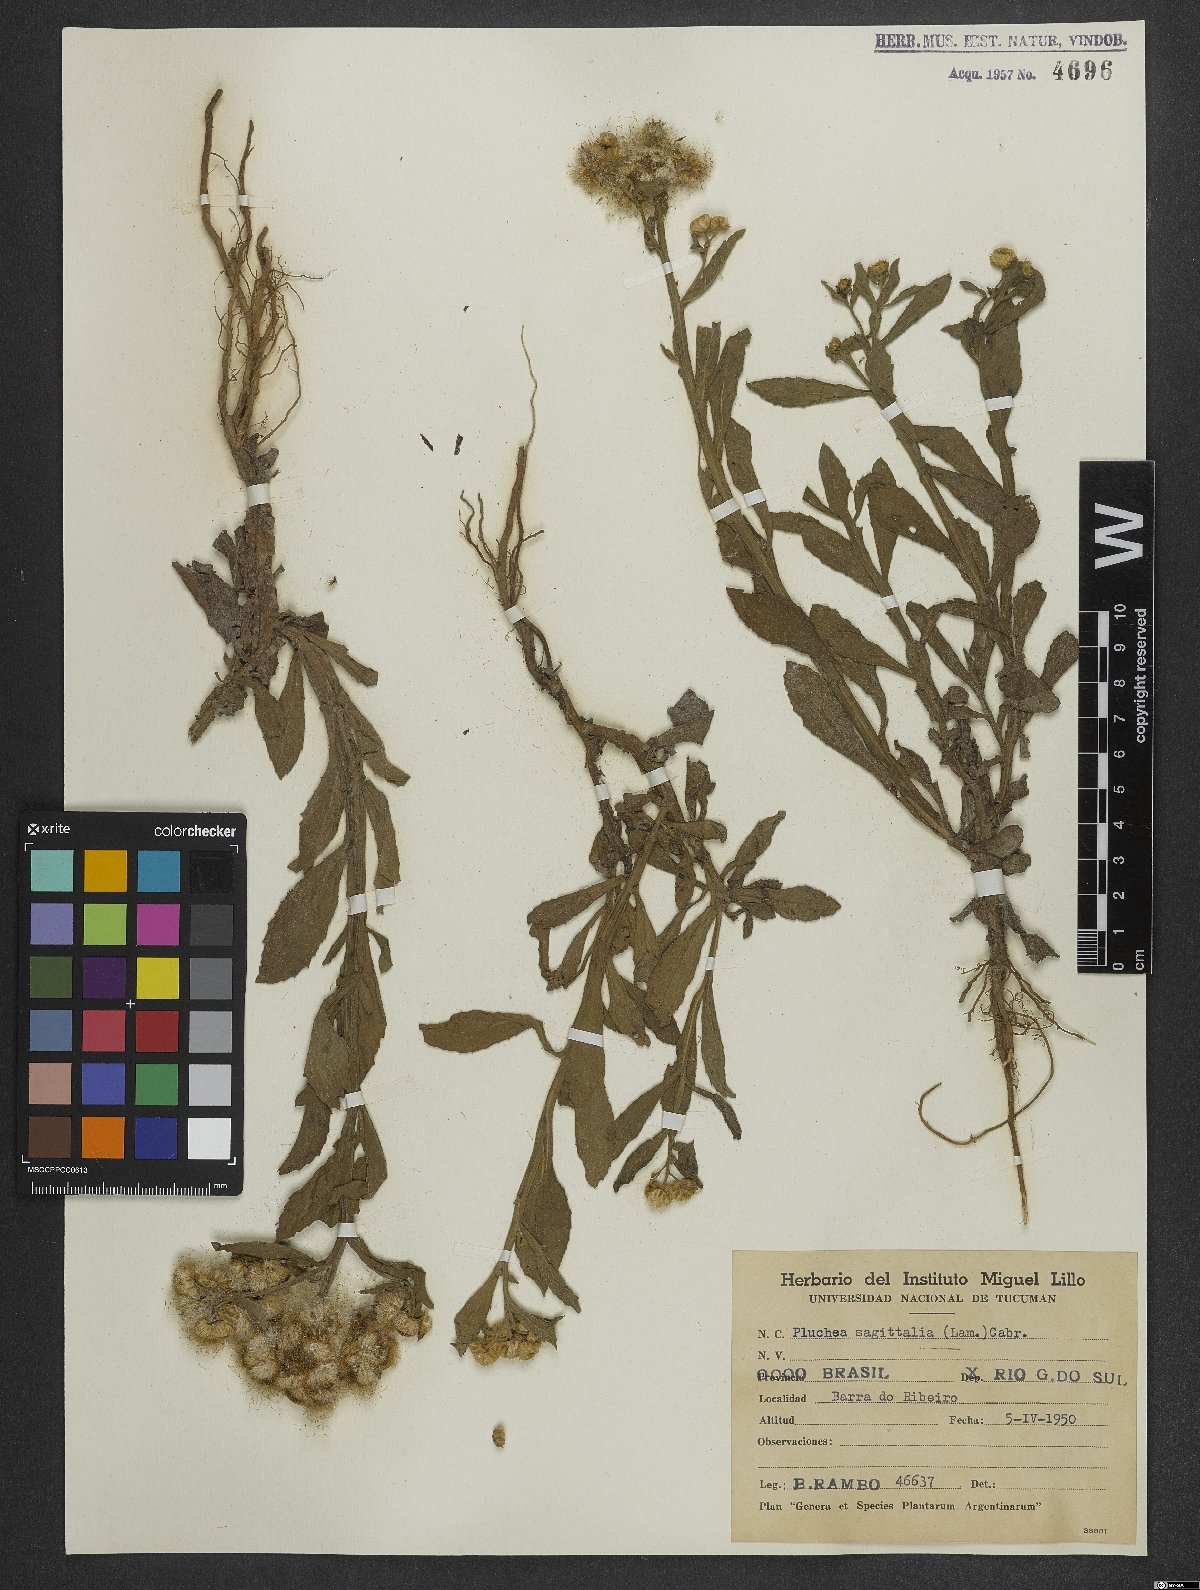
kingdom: Plantae
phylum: Tracheophyta
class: Magnoliopsida
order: Asterales
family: Asteraceae
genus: Pluchea
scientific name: Pluchea sagittalis
